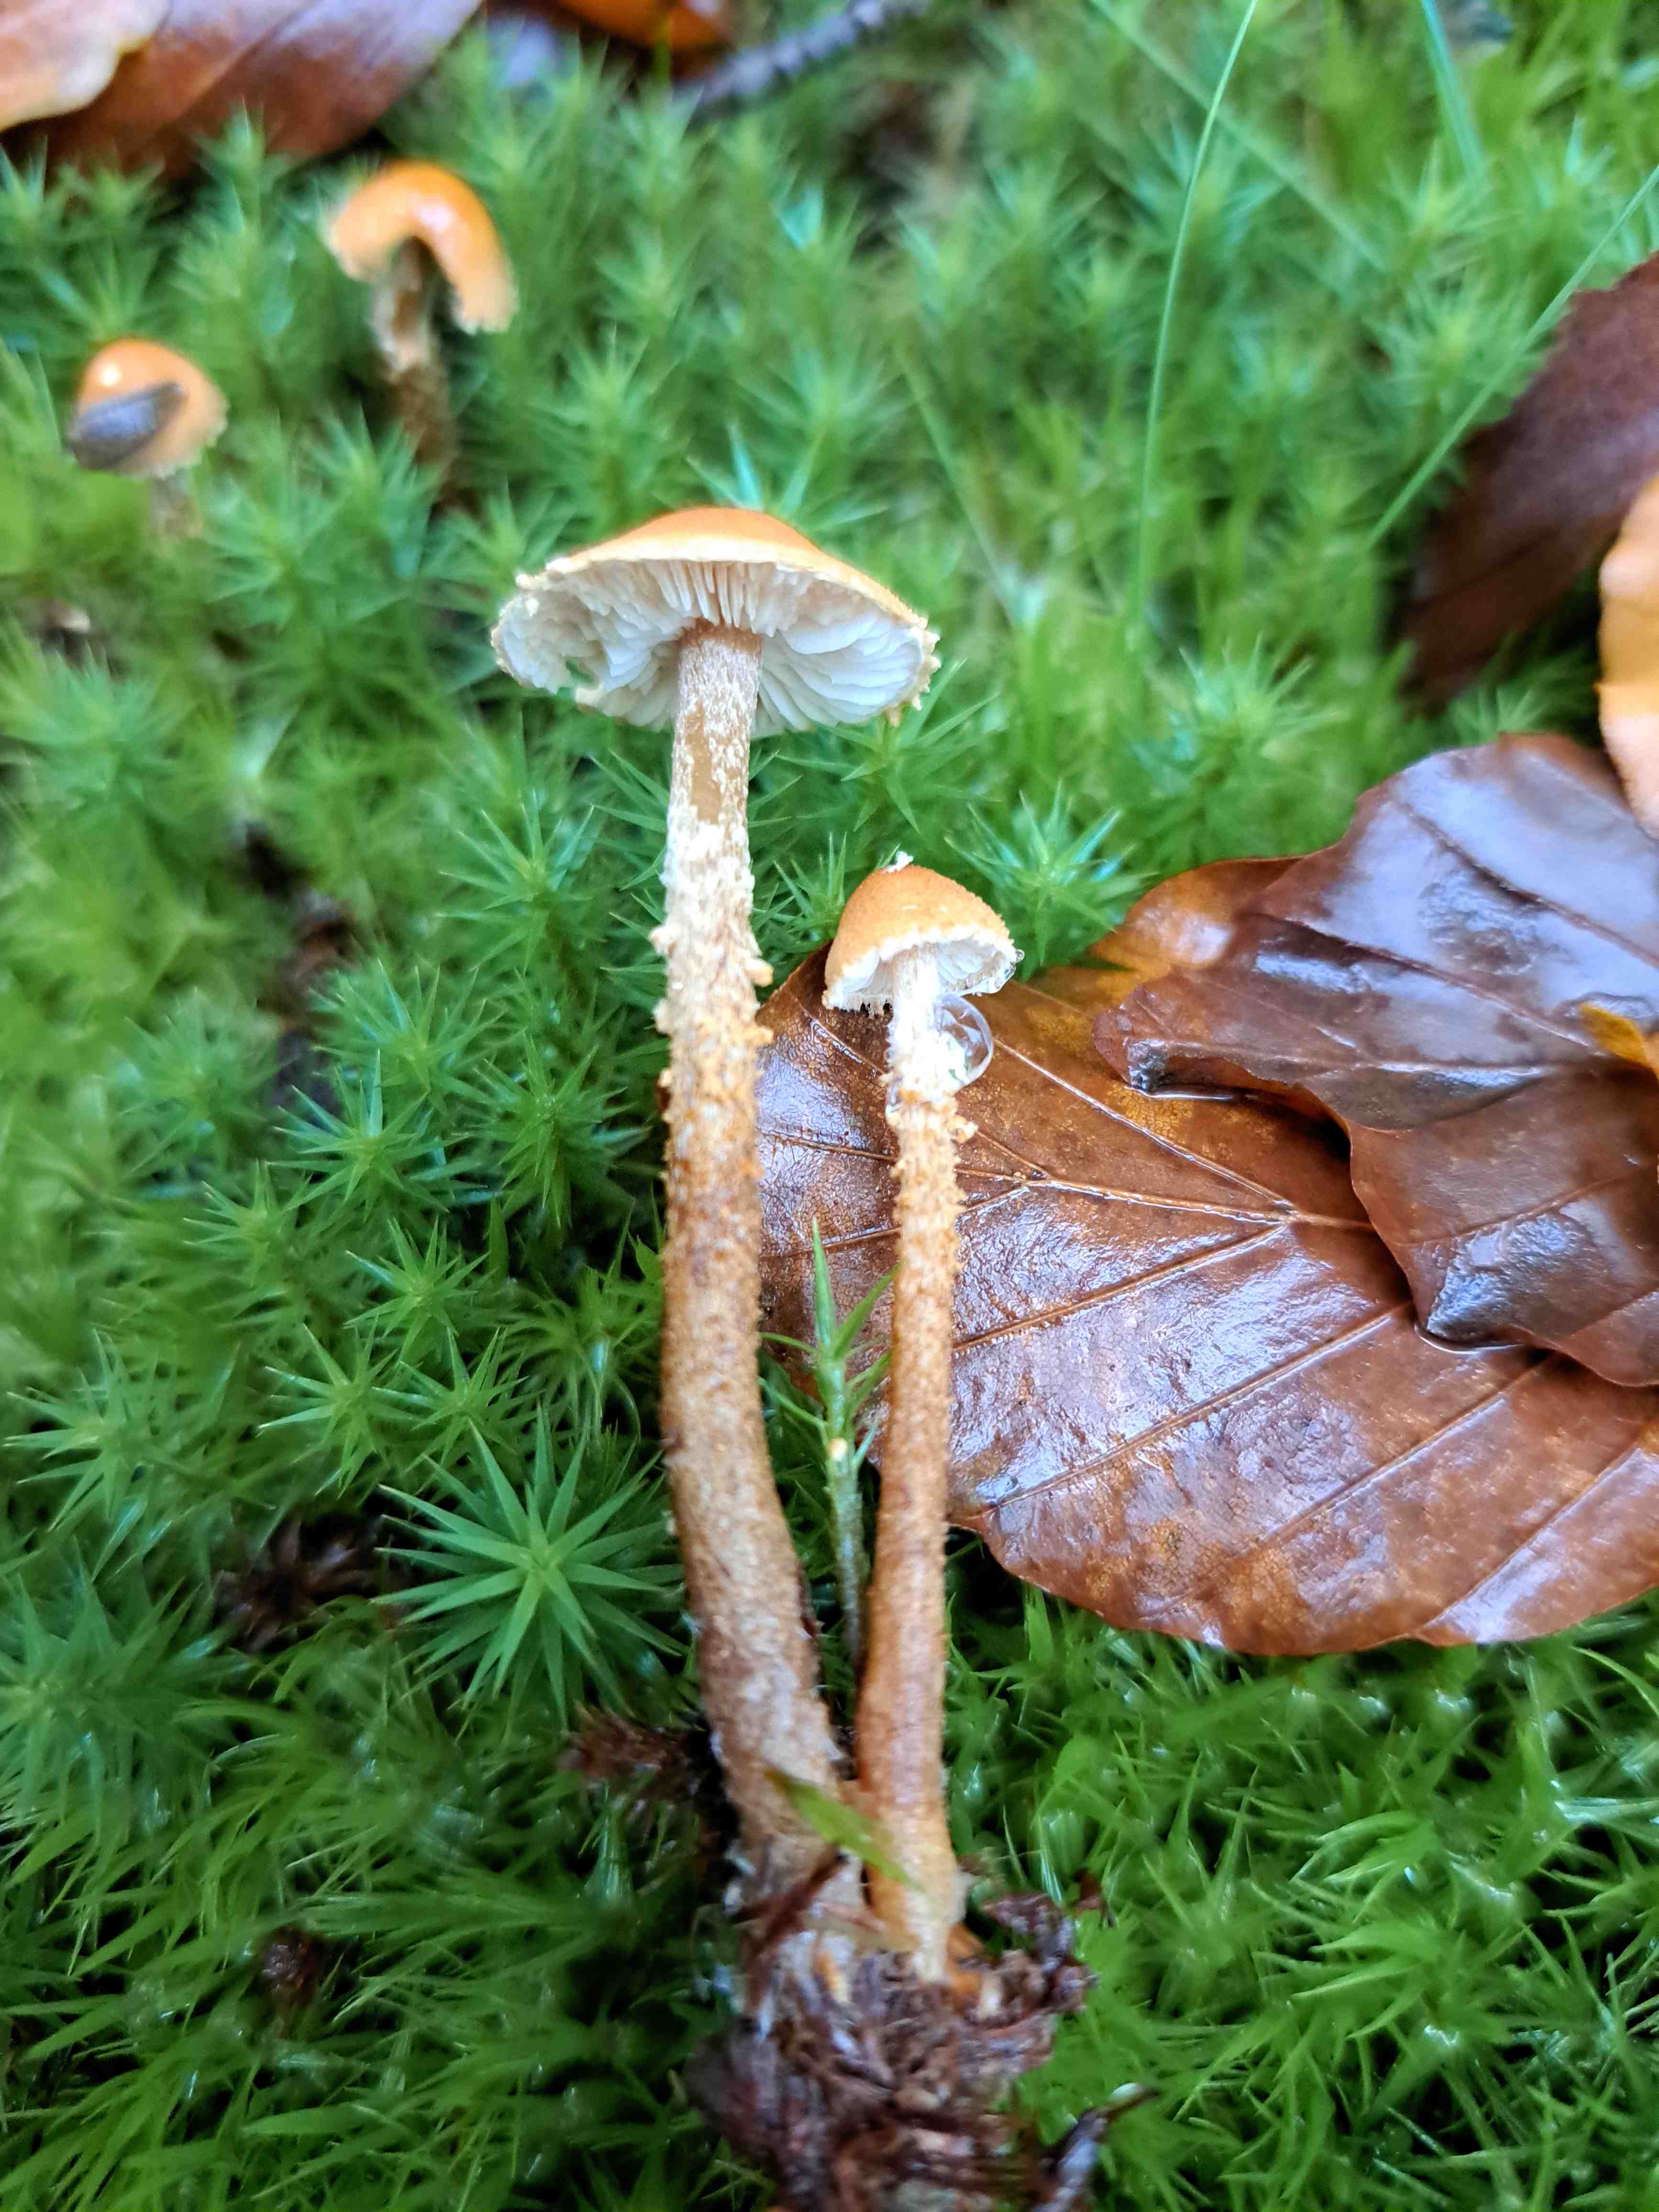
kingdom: Fungi
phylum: Basidiomycota
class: Agaricomycetes
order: Agaricales
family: Tricholomataceae
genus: Cystoderma
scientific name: Cystoderma amianthinum
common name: okkergul grynhat
